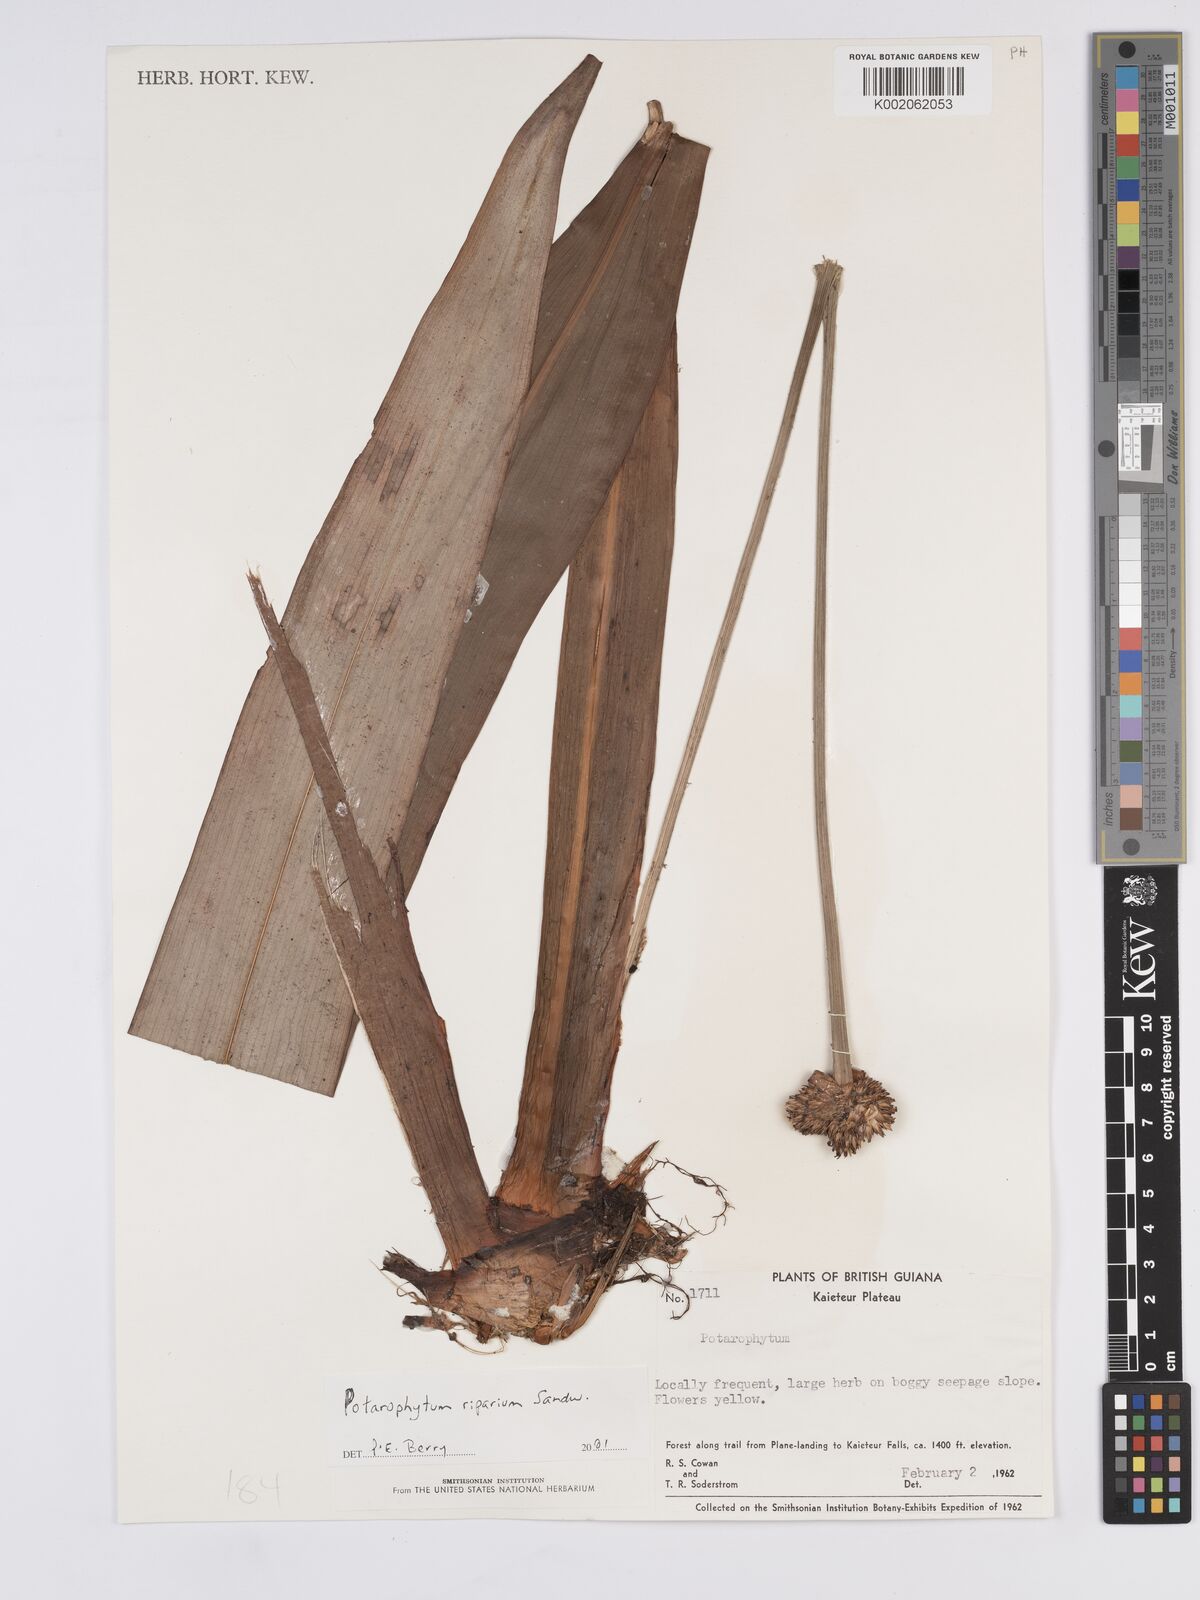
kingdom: Plantae
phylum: Tracheophyta
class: Liliopsida
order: Poales
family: Rapateaceae
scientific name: Rapateaceae
